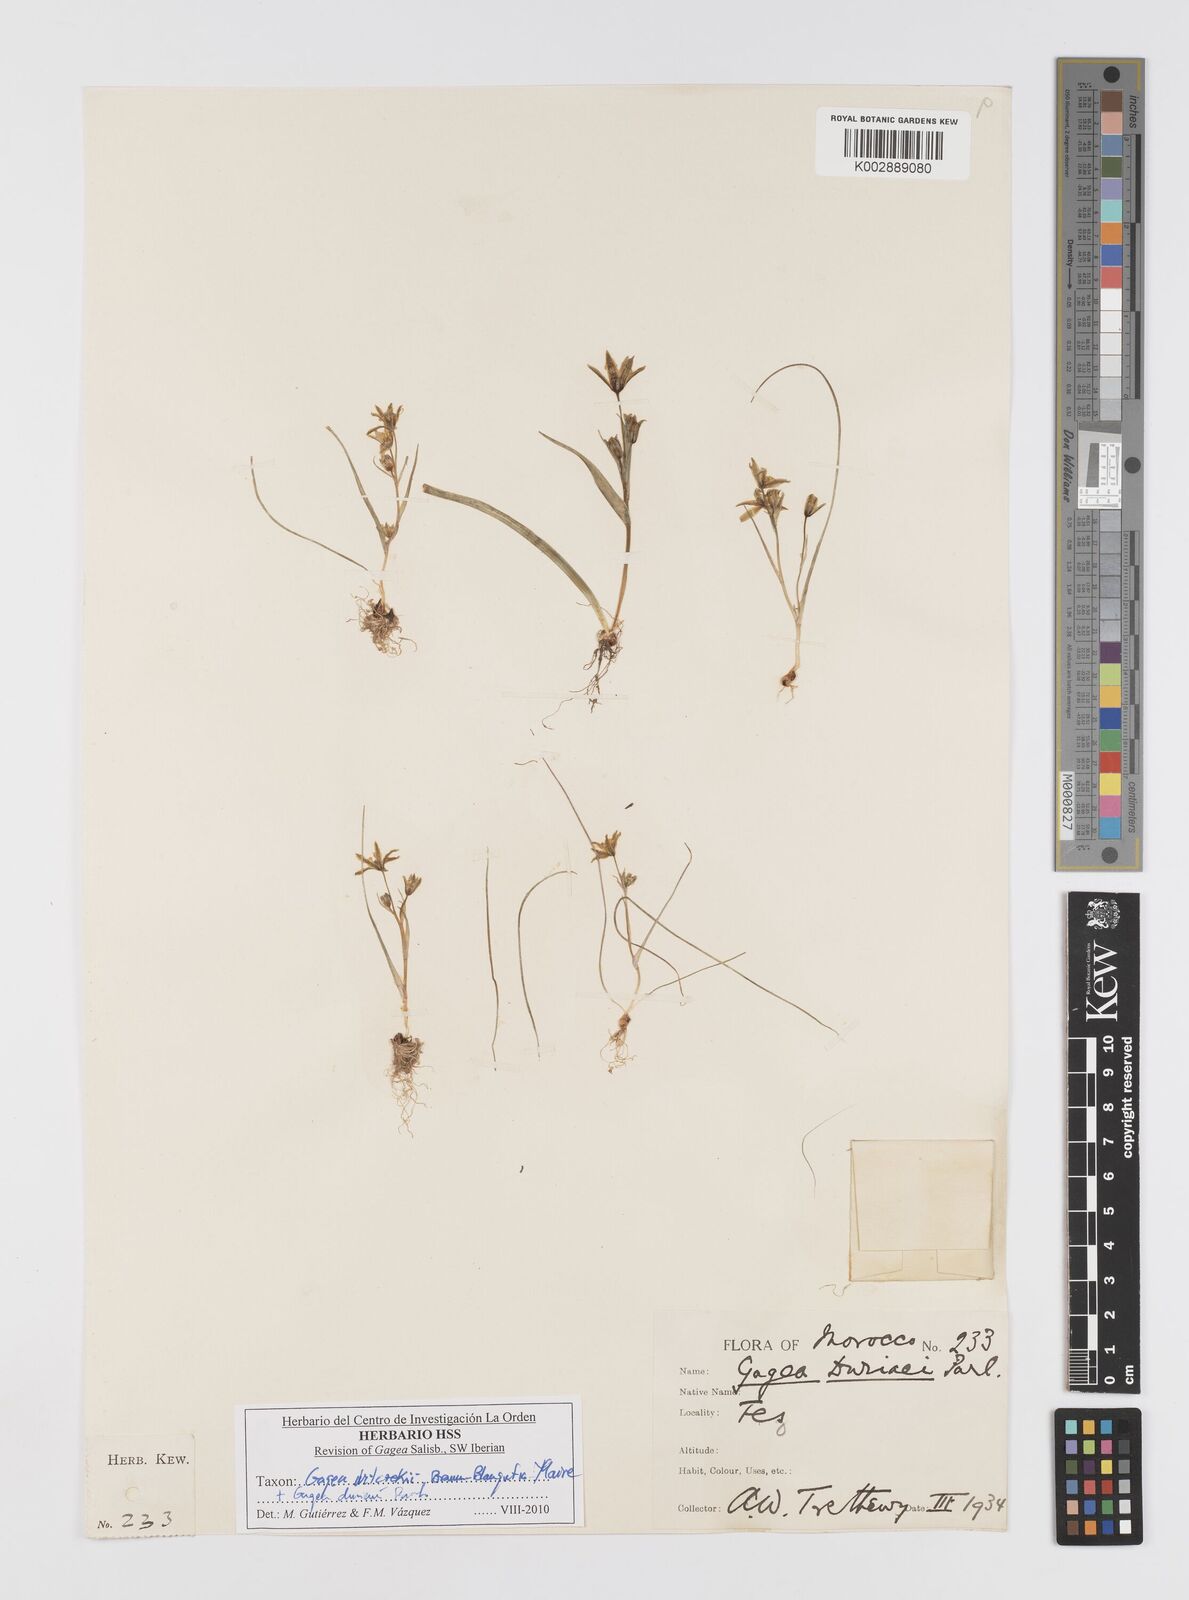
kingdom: Plantae
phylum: Tracheophyta
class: Liliopsida
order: Liliales
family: Liliaceae
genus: Gagea
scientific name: Gagea algeriensis
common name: Algerian gagea
